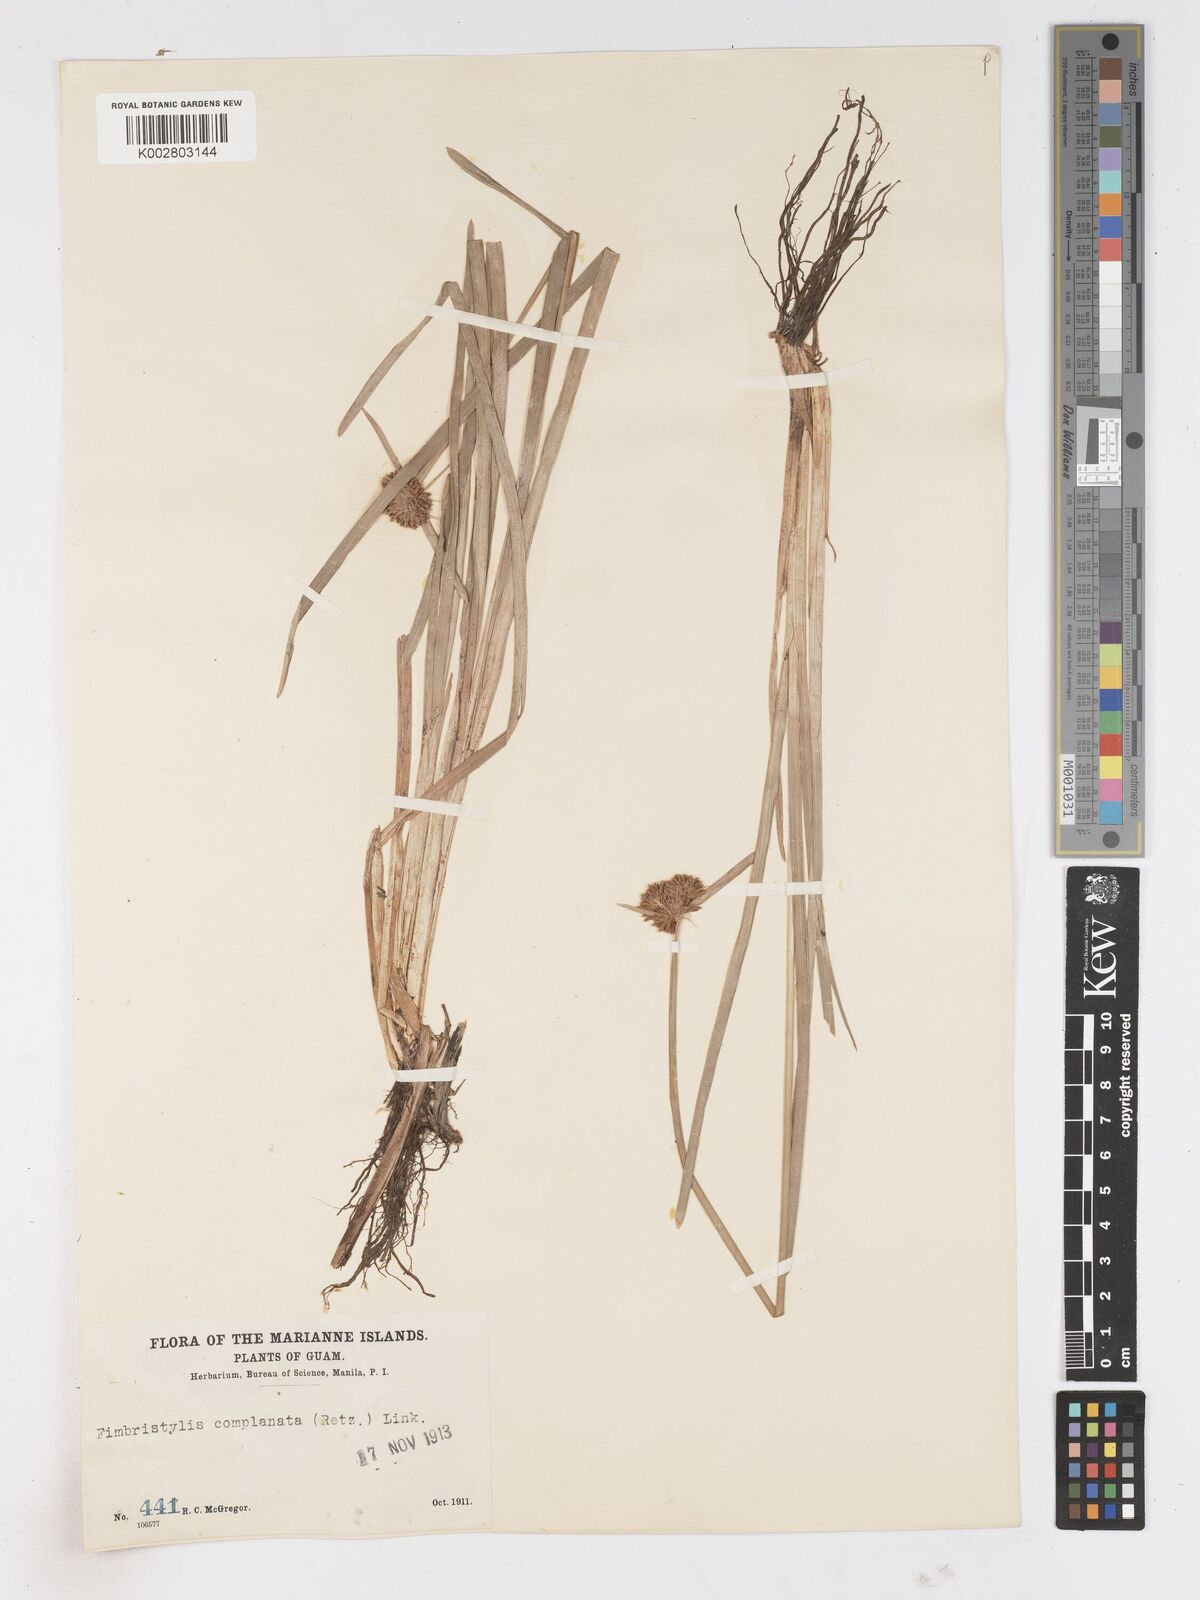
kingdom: Plantae
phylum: Tracheophyta
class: Liliopsida
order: Poales
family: Cyperaceae
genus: Fimbristylis
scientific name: Fimbristylis complanata
